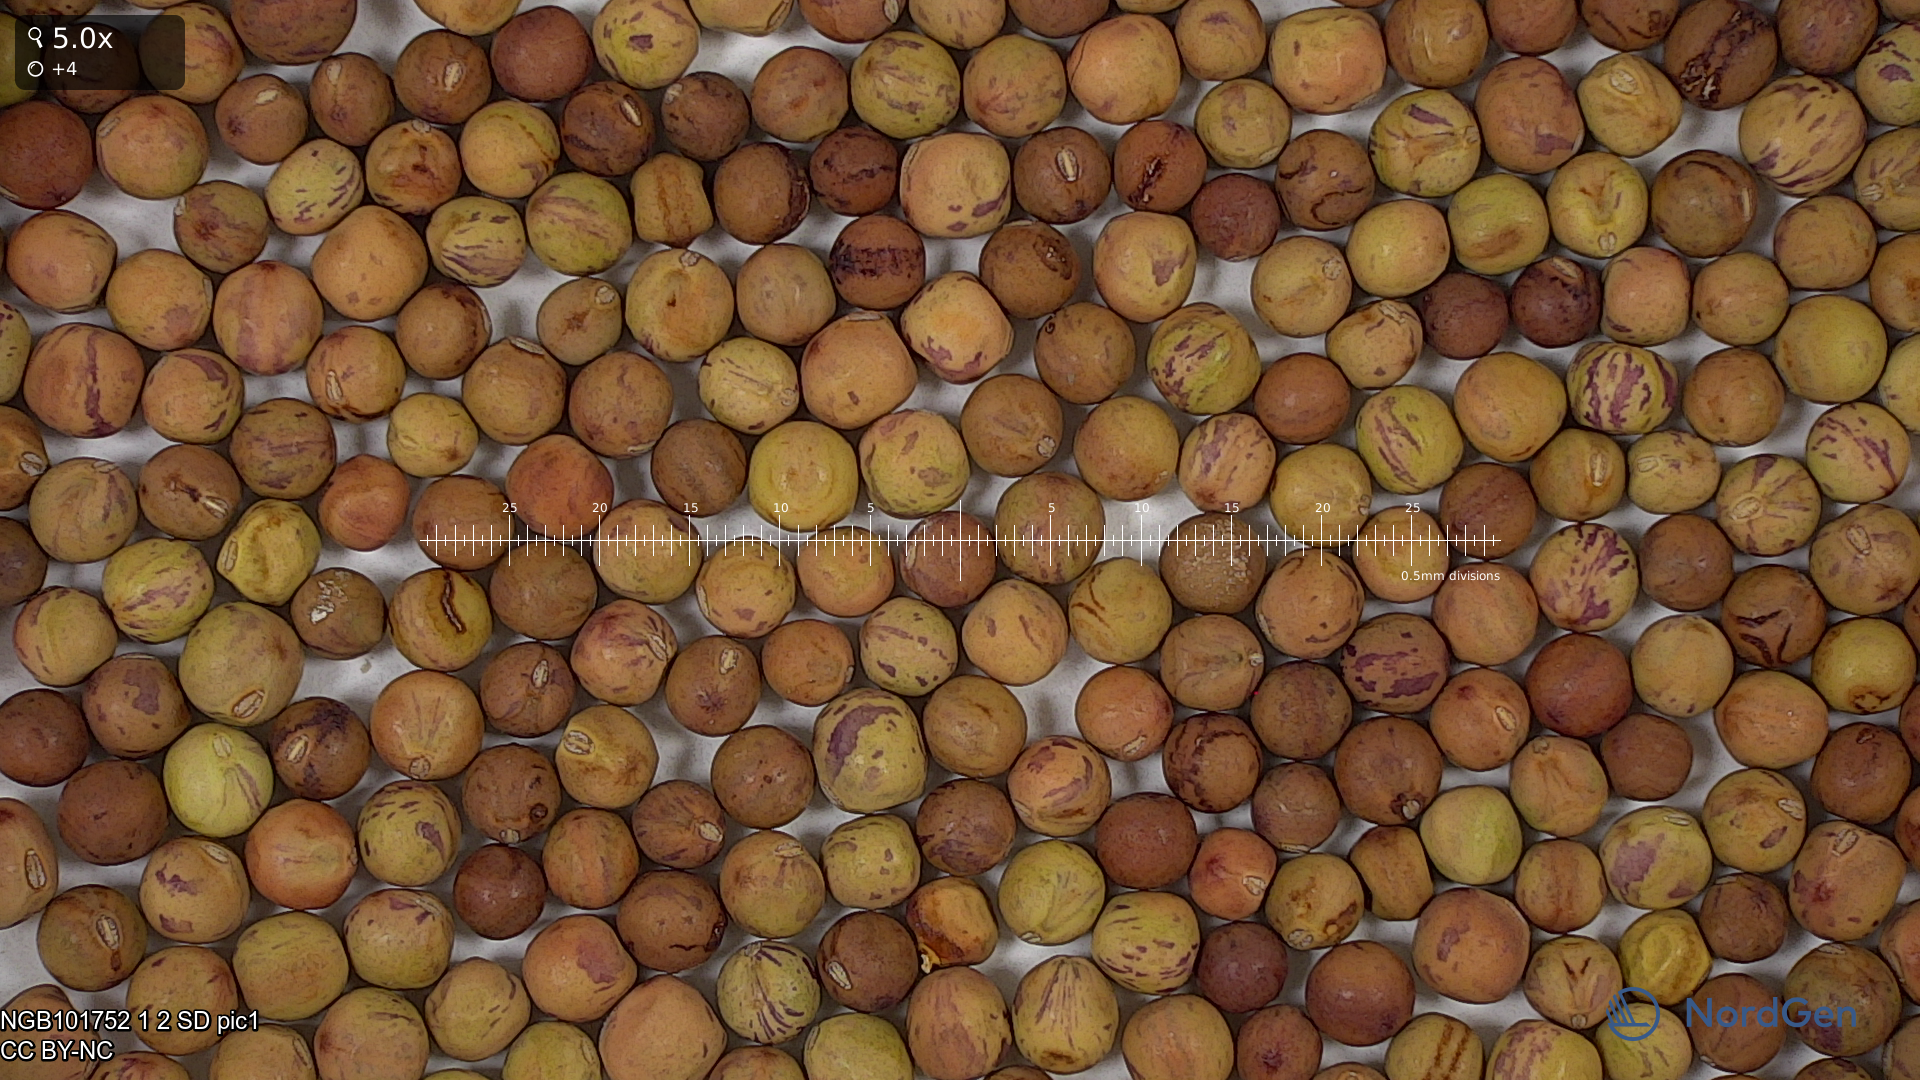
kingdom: Plantae
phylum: Tracheophyta
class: Magnoliopsida
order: Fabales
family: Fabaceae
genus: Lathyrus
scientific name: Lathyrus oleraceus
